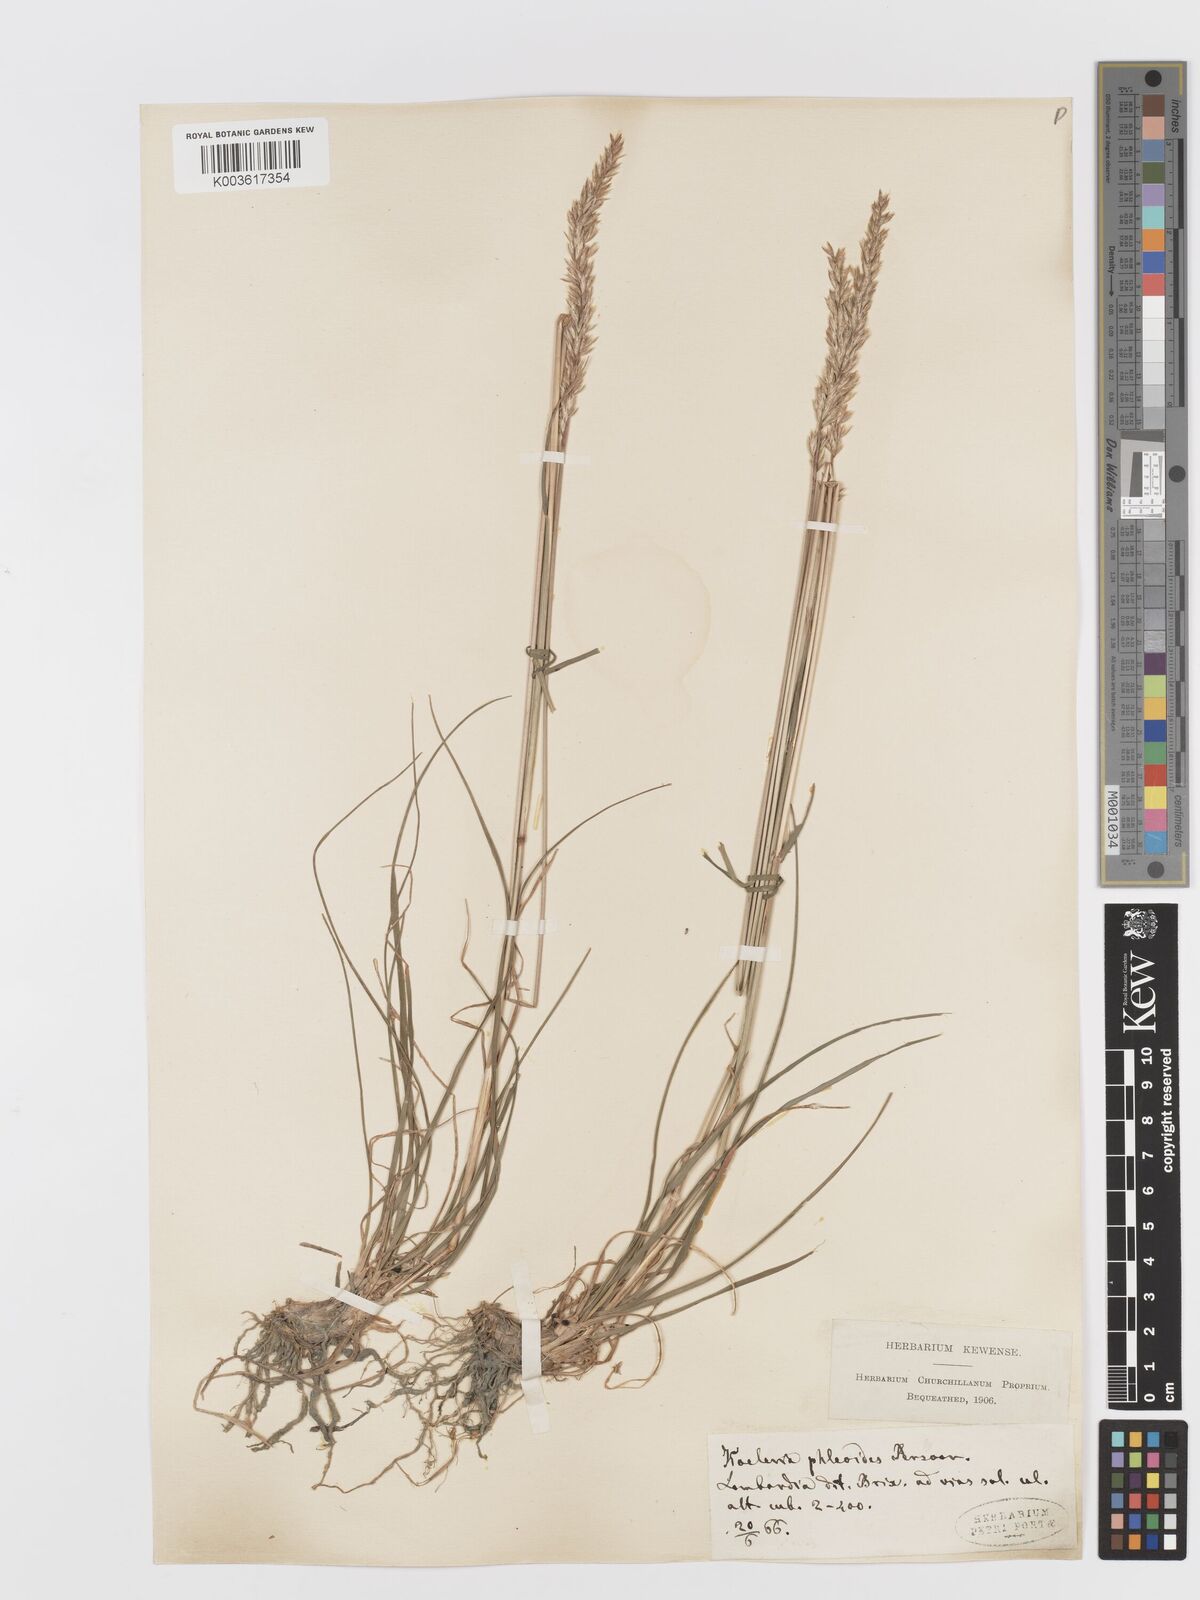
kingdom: Plantae
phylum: Tracheophyta
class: Liliopsida
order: Poales
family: Poaceae
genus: Koeleria
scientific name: Koeleria splendens
